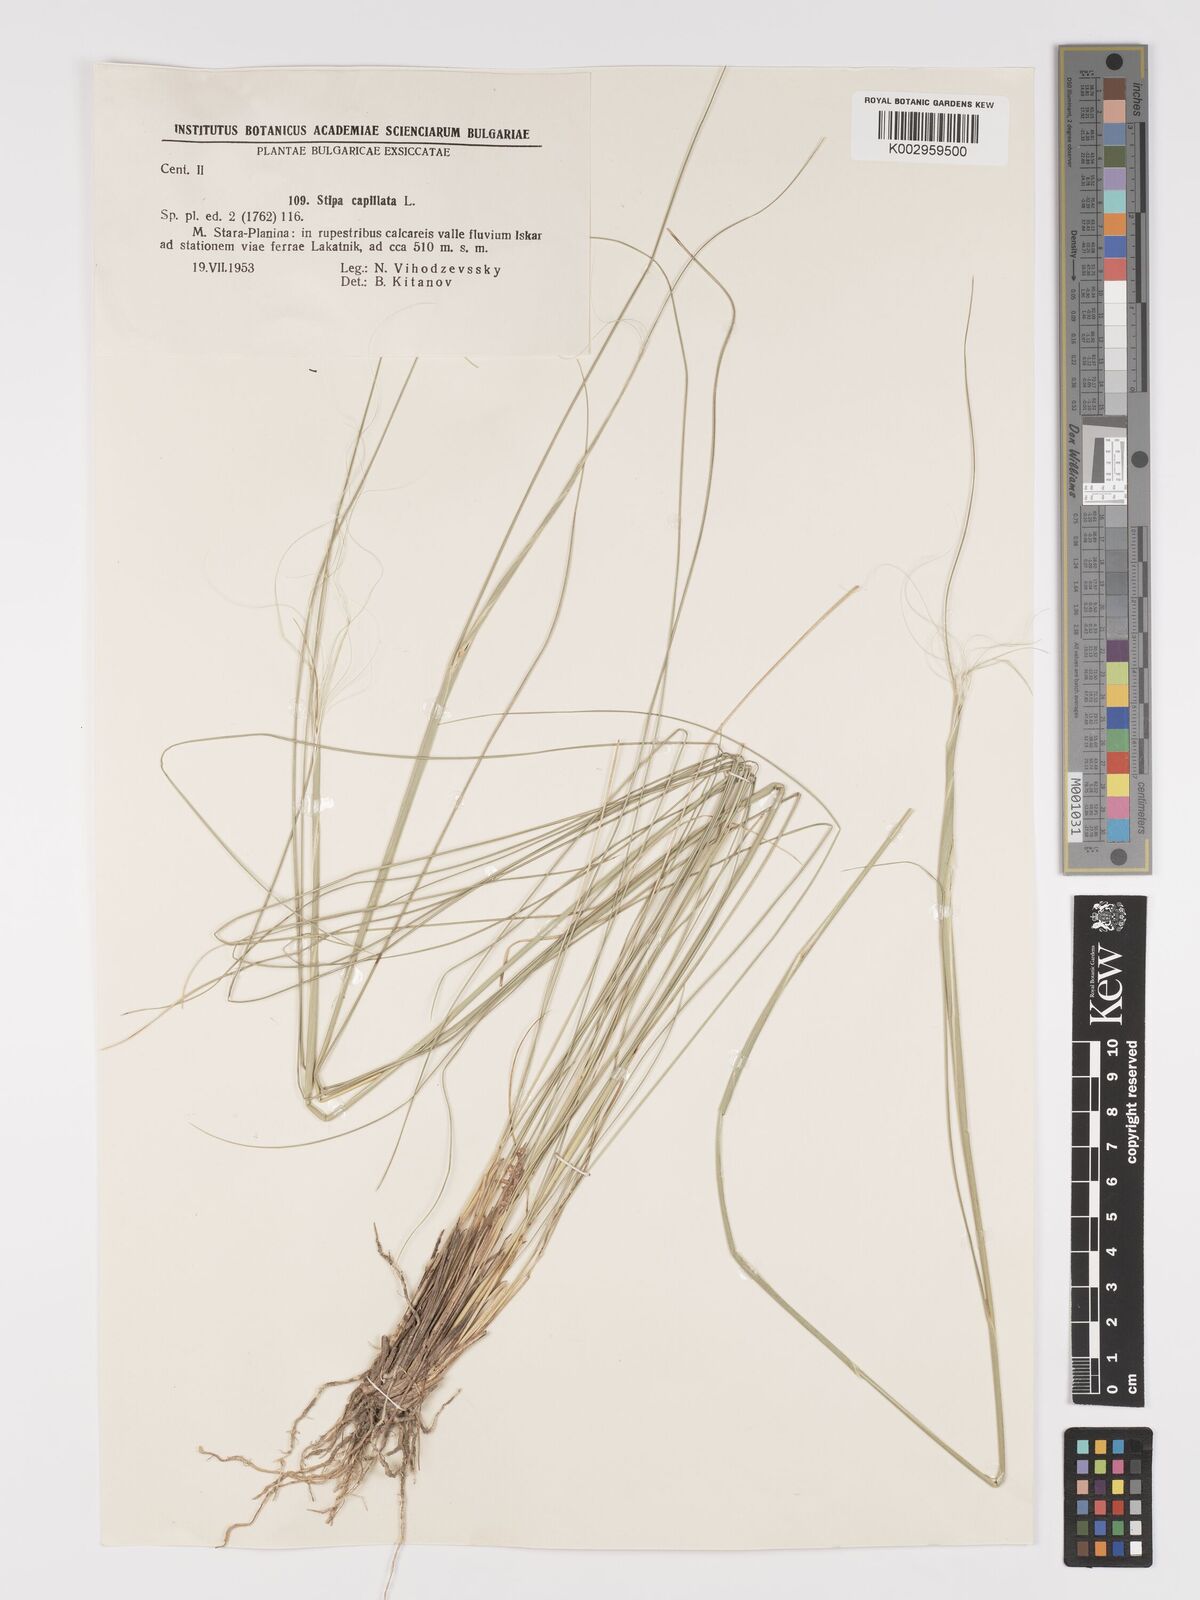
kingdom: Plantae
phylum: Tracheophyta
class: Liliopsida
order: Poales
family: Poaceae
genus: Stipa
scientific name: Stipa capillata
